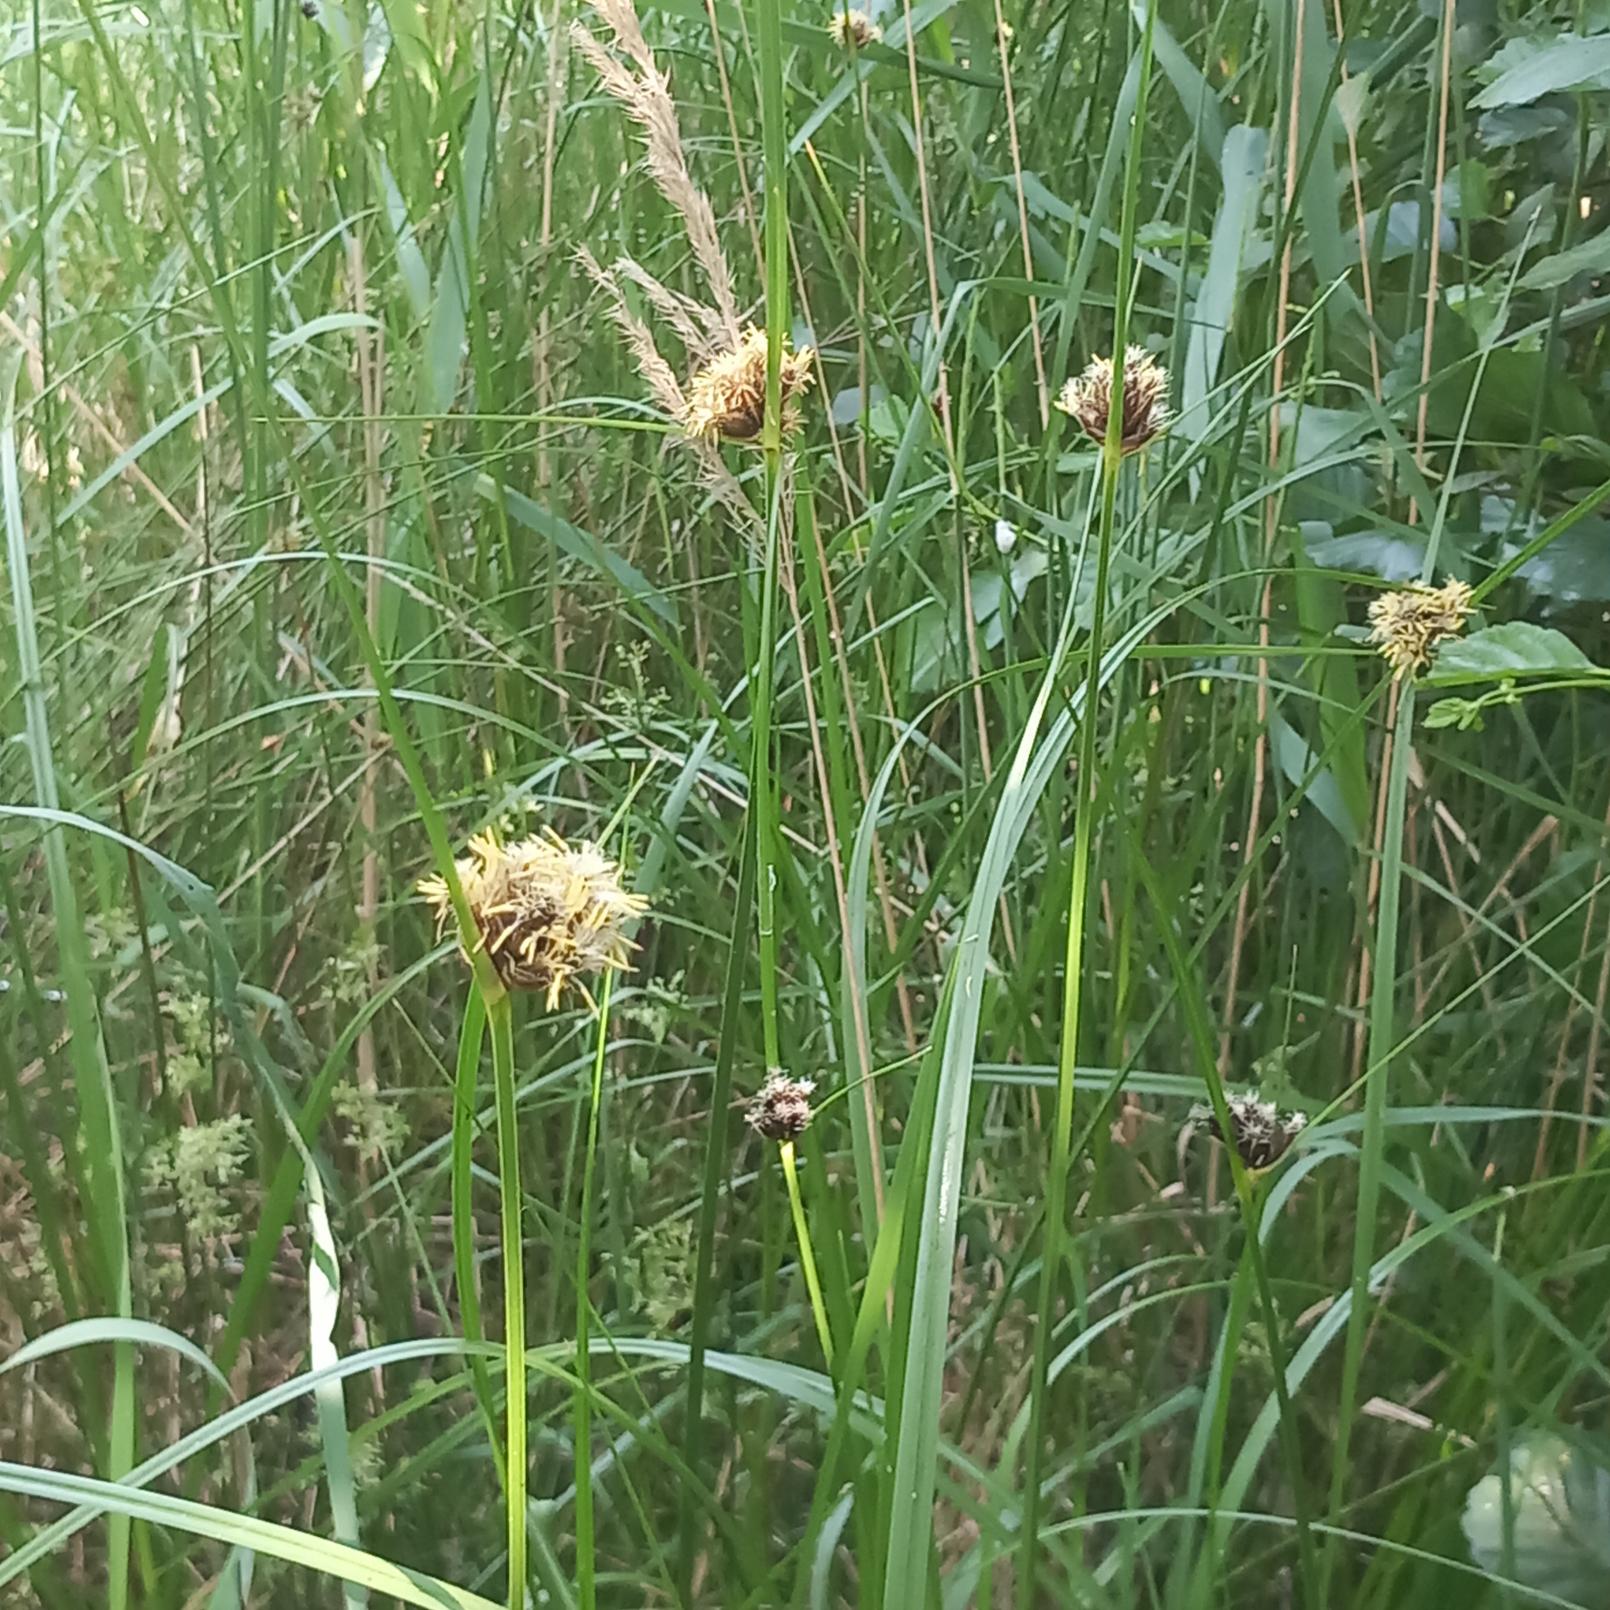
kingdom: Plantae
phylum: Tracheophyta
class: Liliopsida
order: Poales
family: Cyperaceae
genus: Bolboschoenus
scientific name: Bolboschoenus maritimus
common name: Strand-kogleaks
